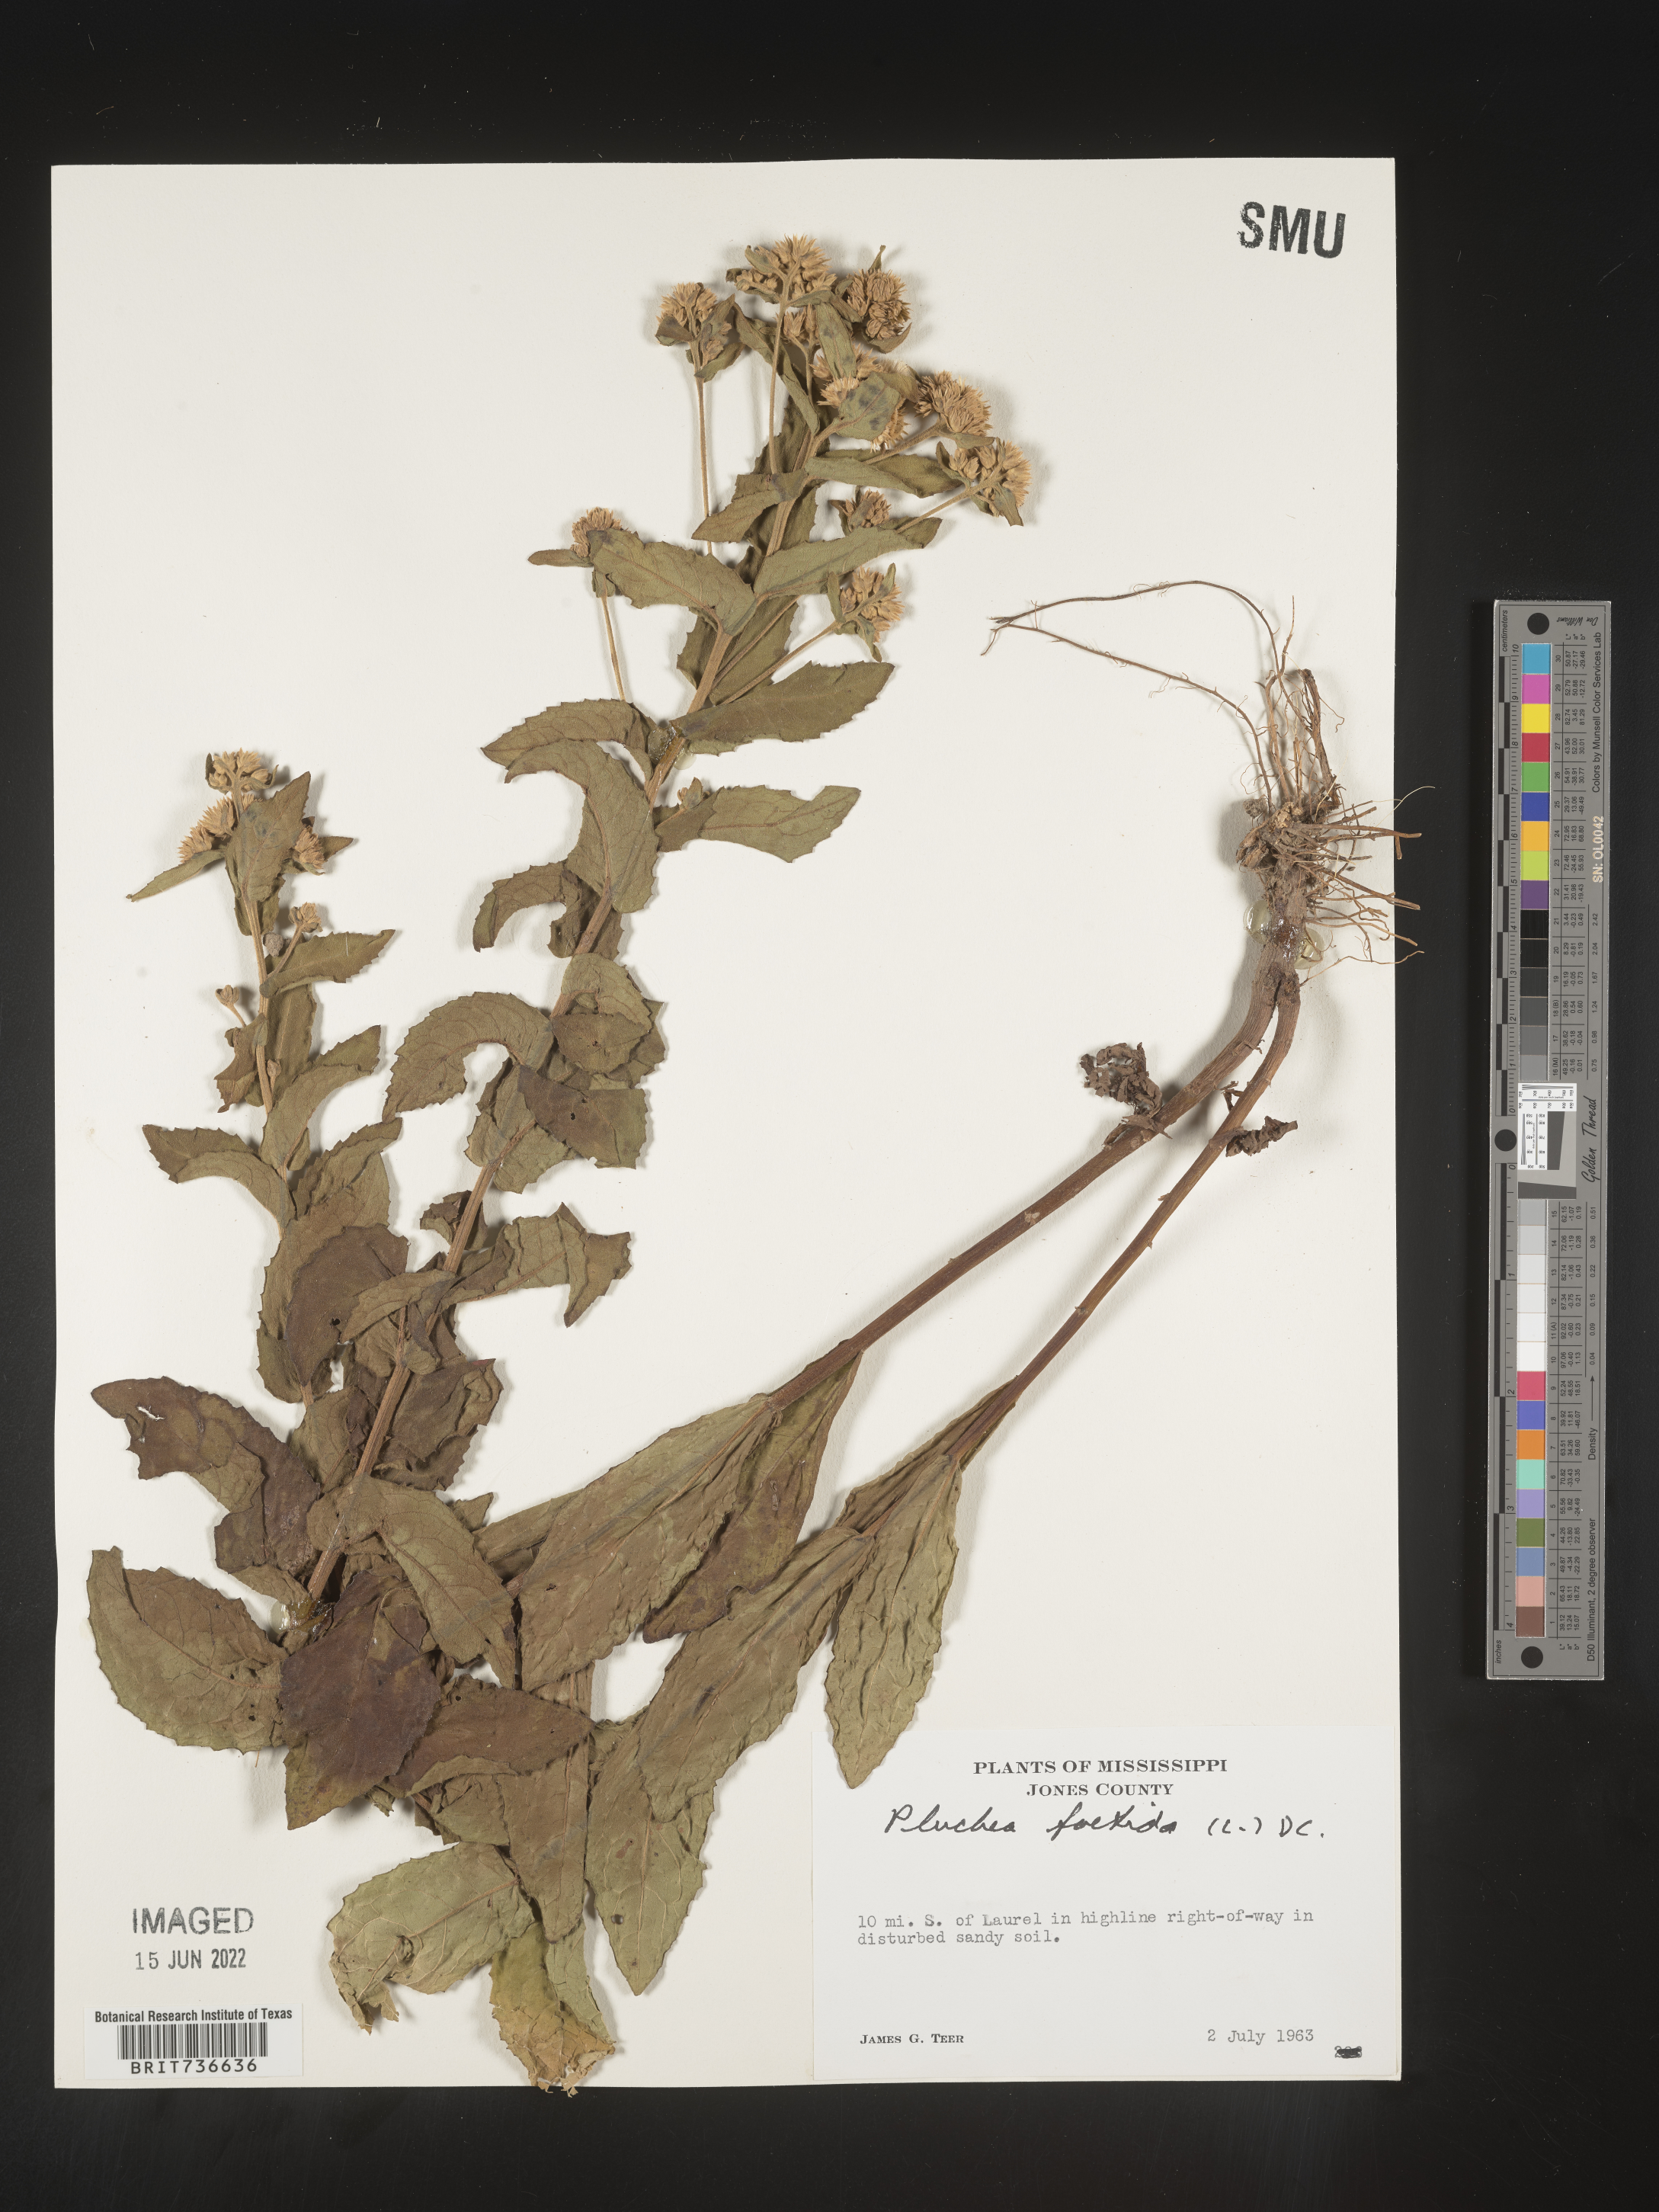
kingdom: Plantae
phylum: Tracheophyta
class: Magnoliopsida
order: Asterales
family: Asteraceae
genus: Pluchea
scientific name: Pluchea foetida
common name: Stinking camphorweed
